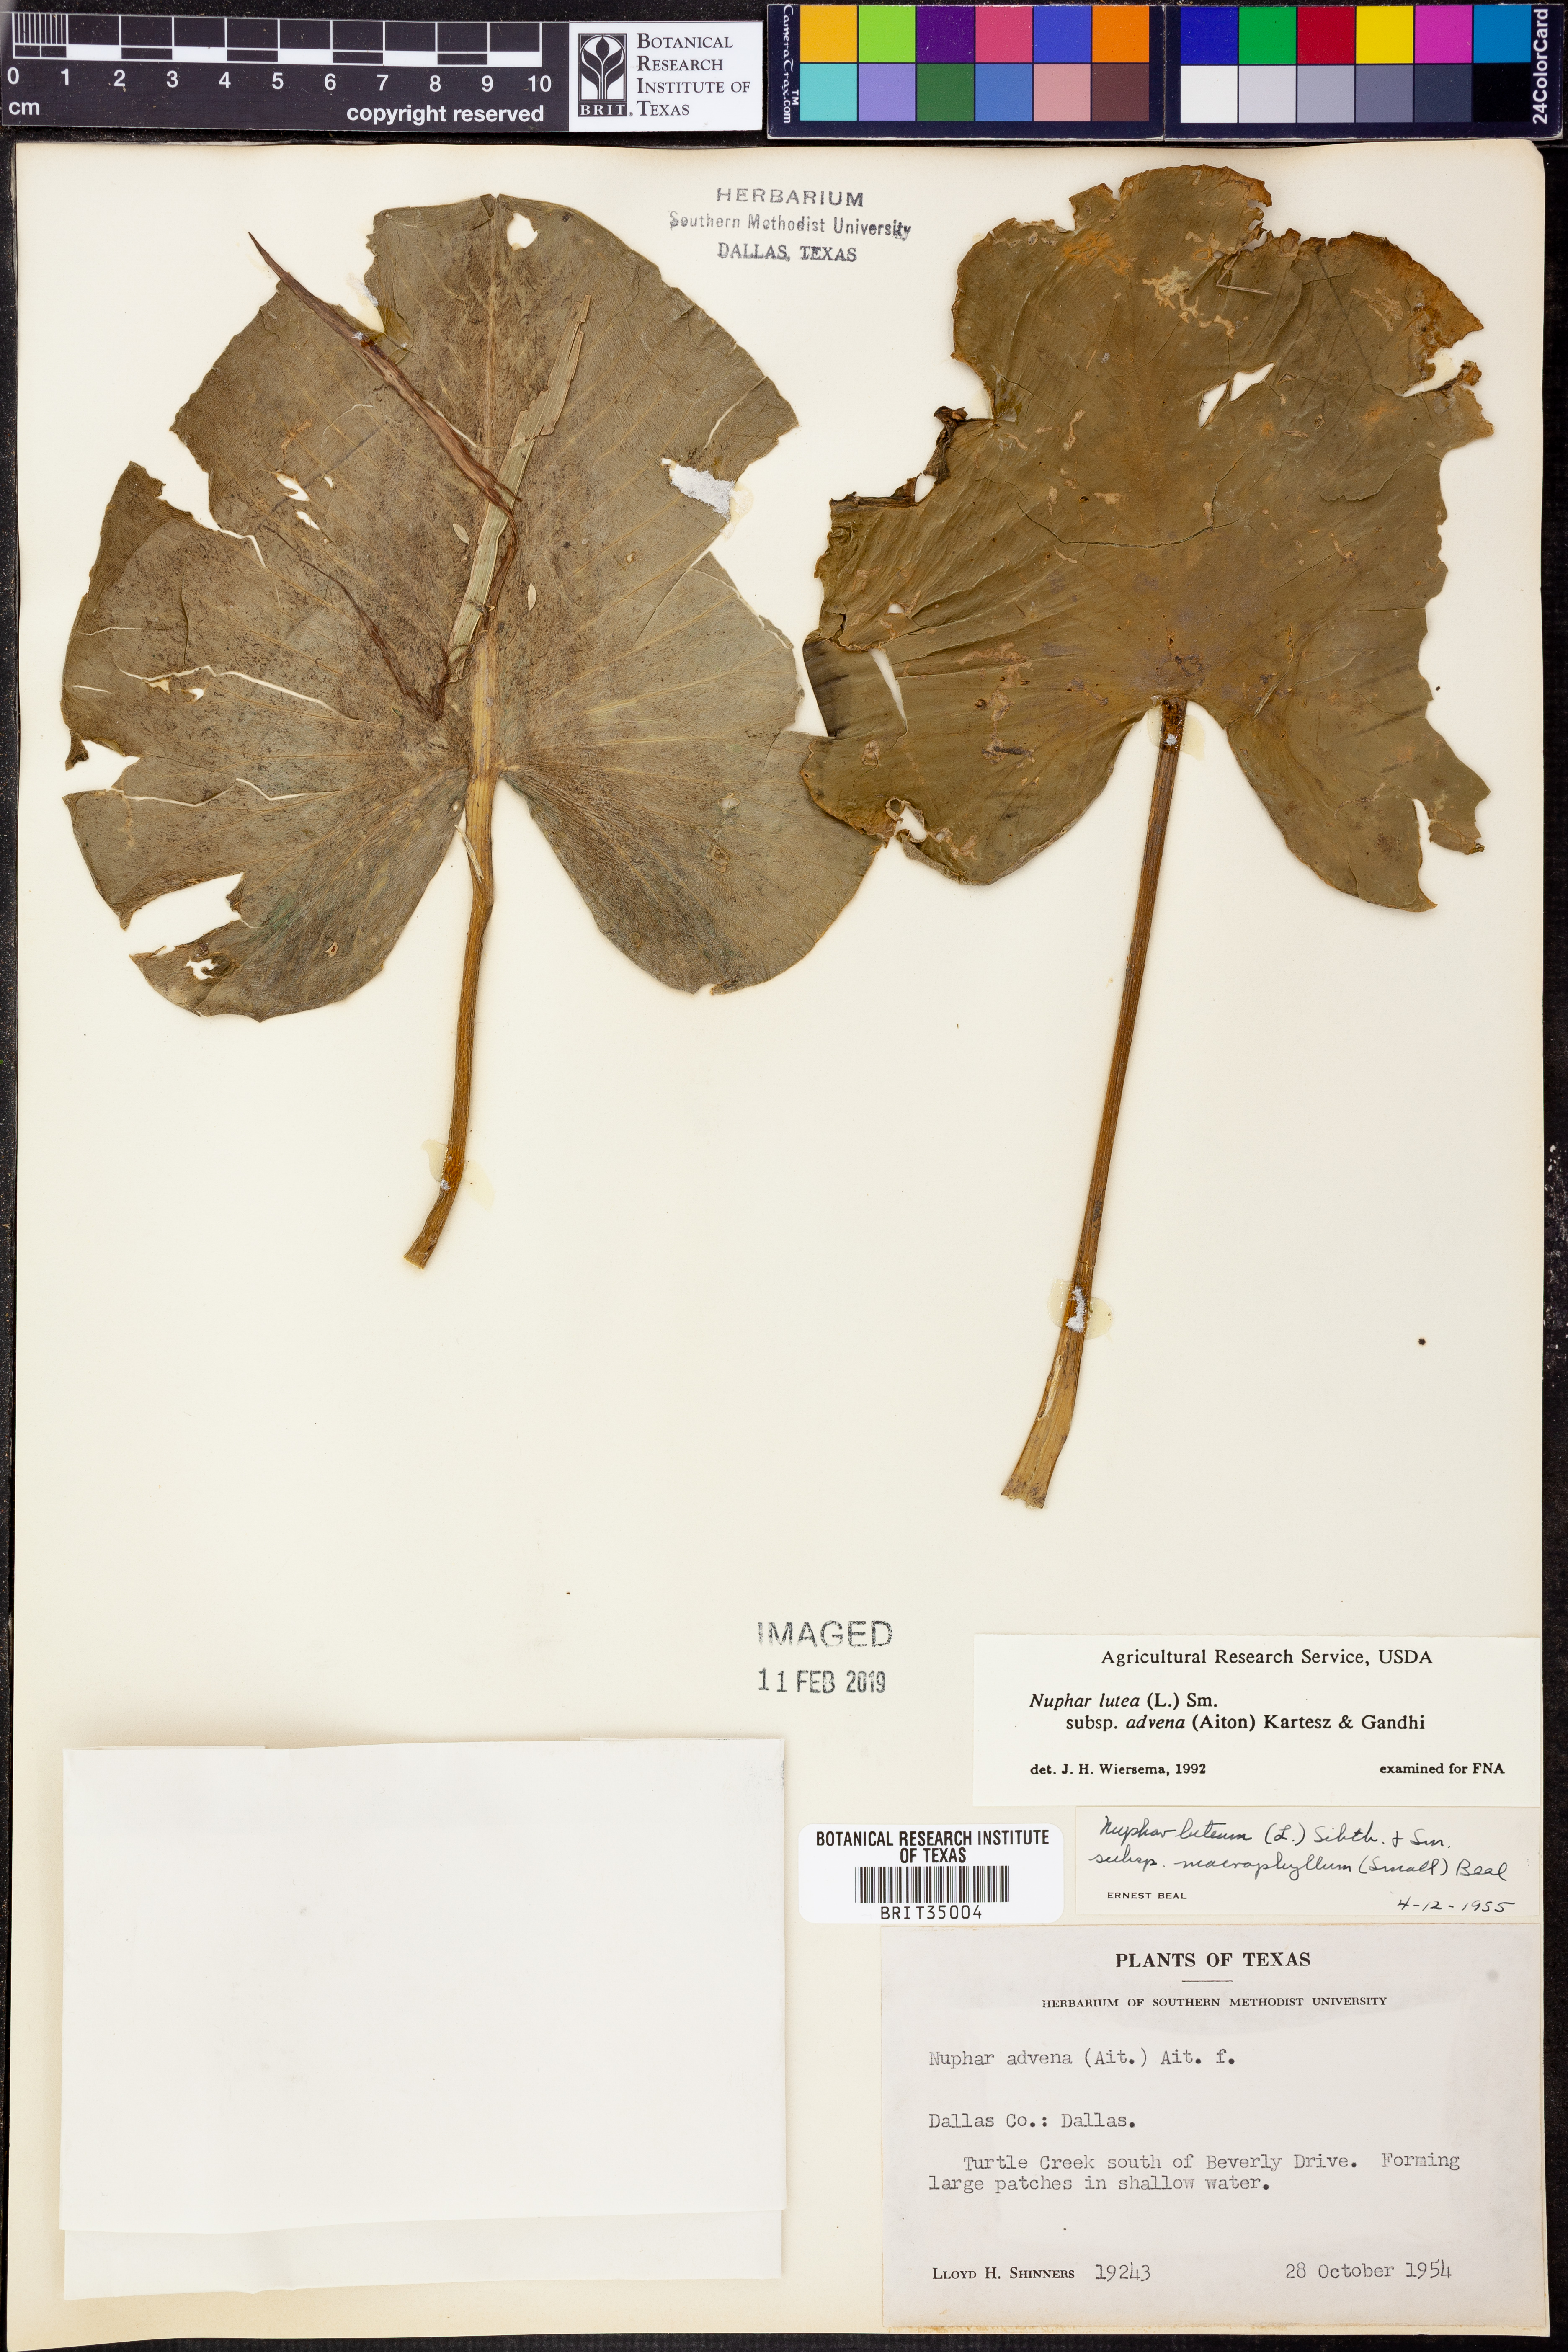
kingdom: Plantae
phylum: Tracheophyta
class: Magnoliopsida
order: Nymphaeales
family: Nymphaeaceae
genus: Nuphar
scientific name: Nuphar advena
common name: Spatter-dock
